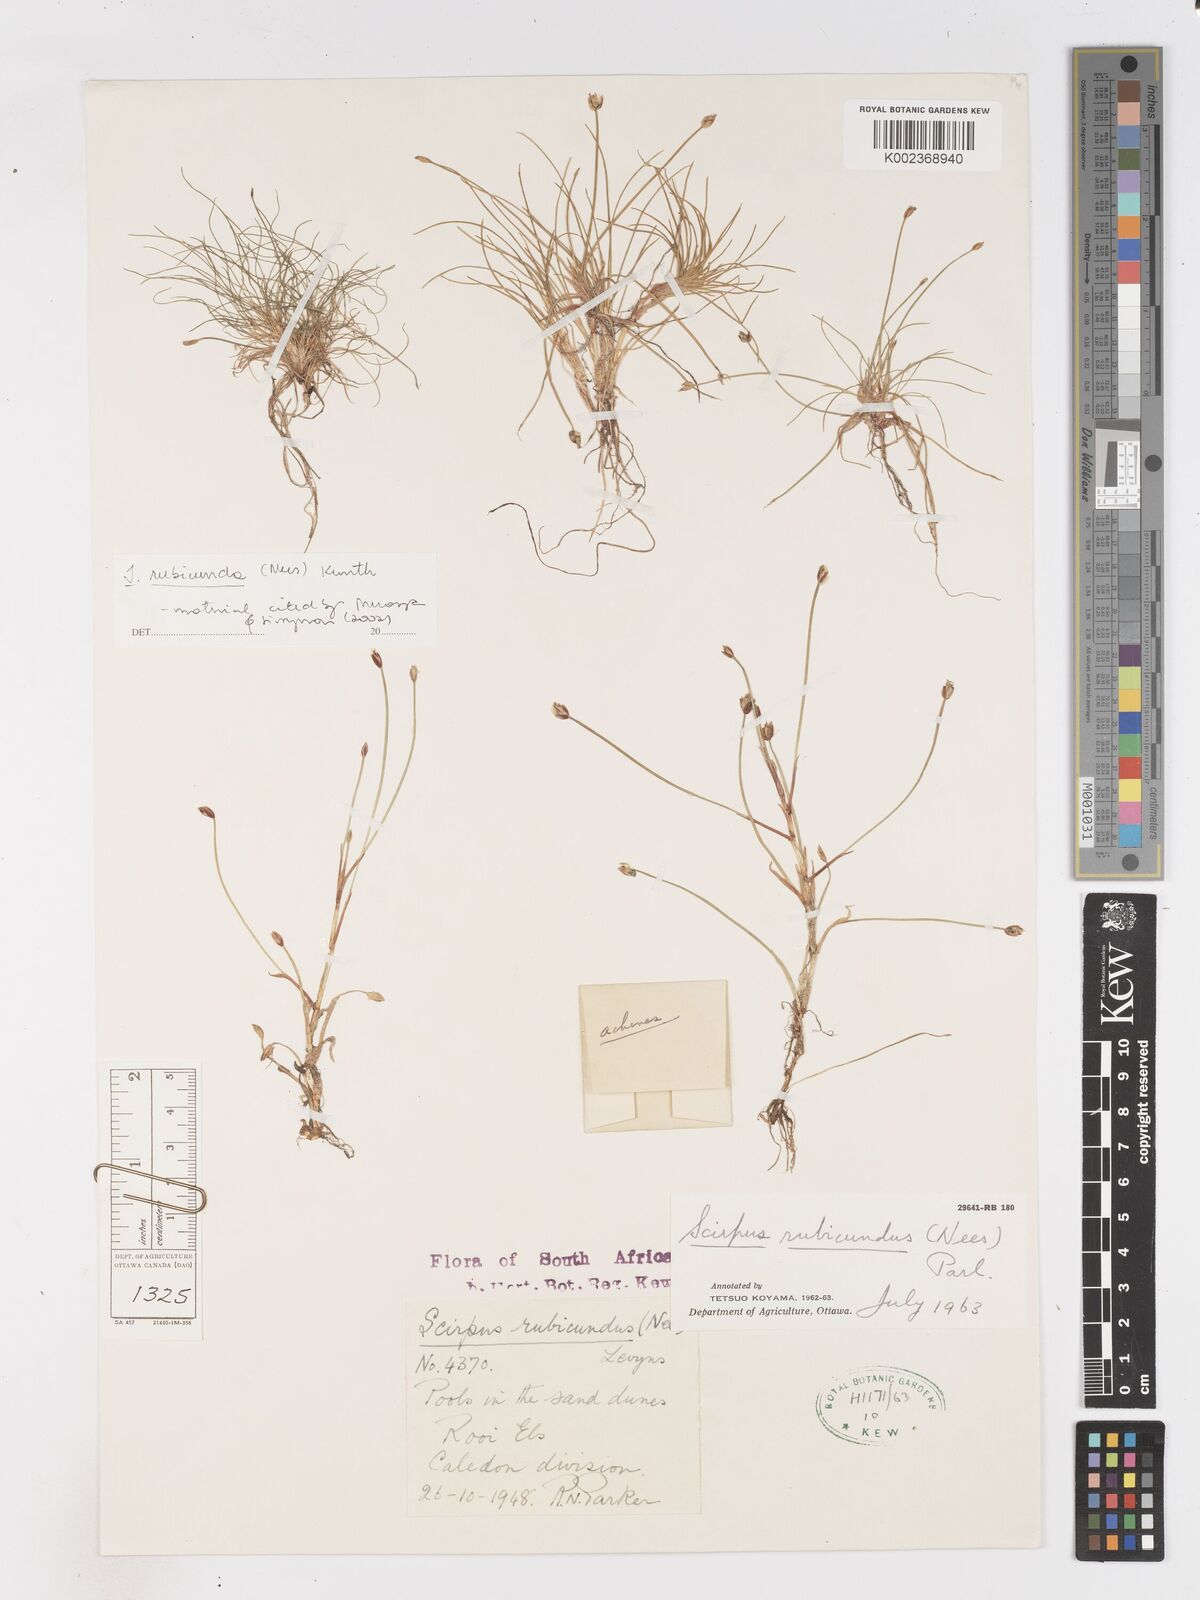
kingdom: Plantae
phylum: Tracheophyta
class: Liliopsida
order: Poales
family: Cyperaceae
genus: Isolepis
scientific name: Isolepis rubicunda
